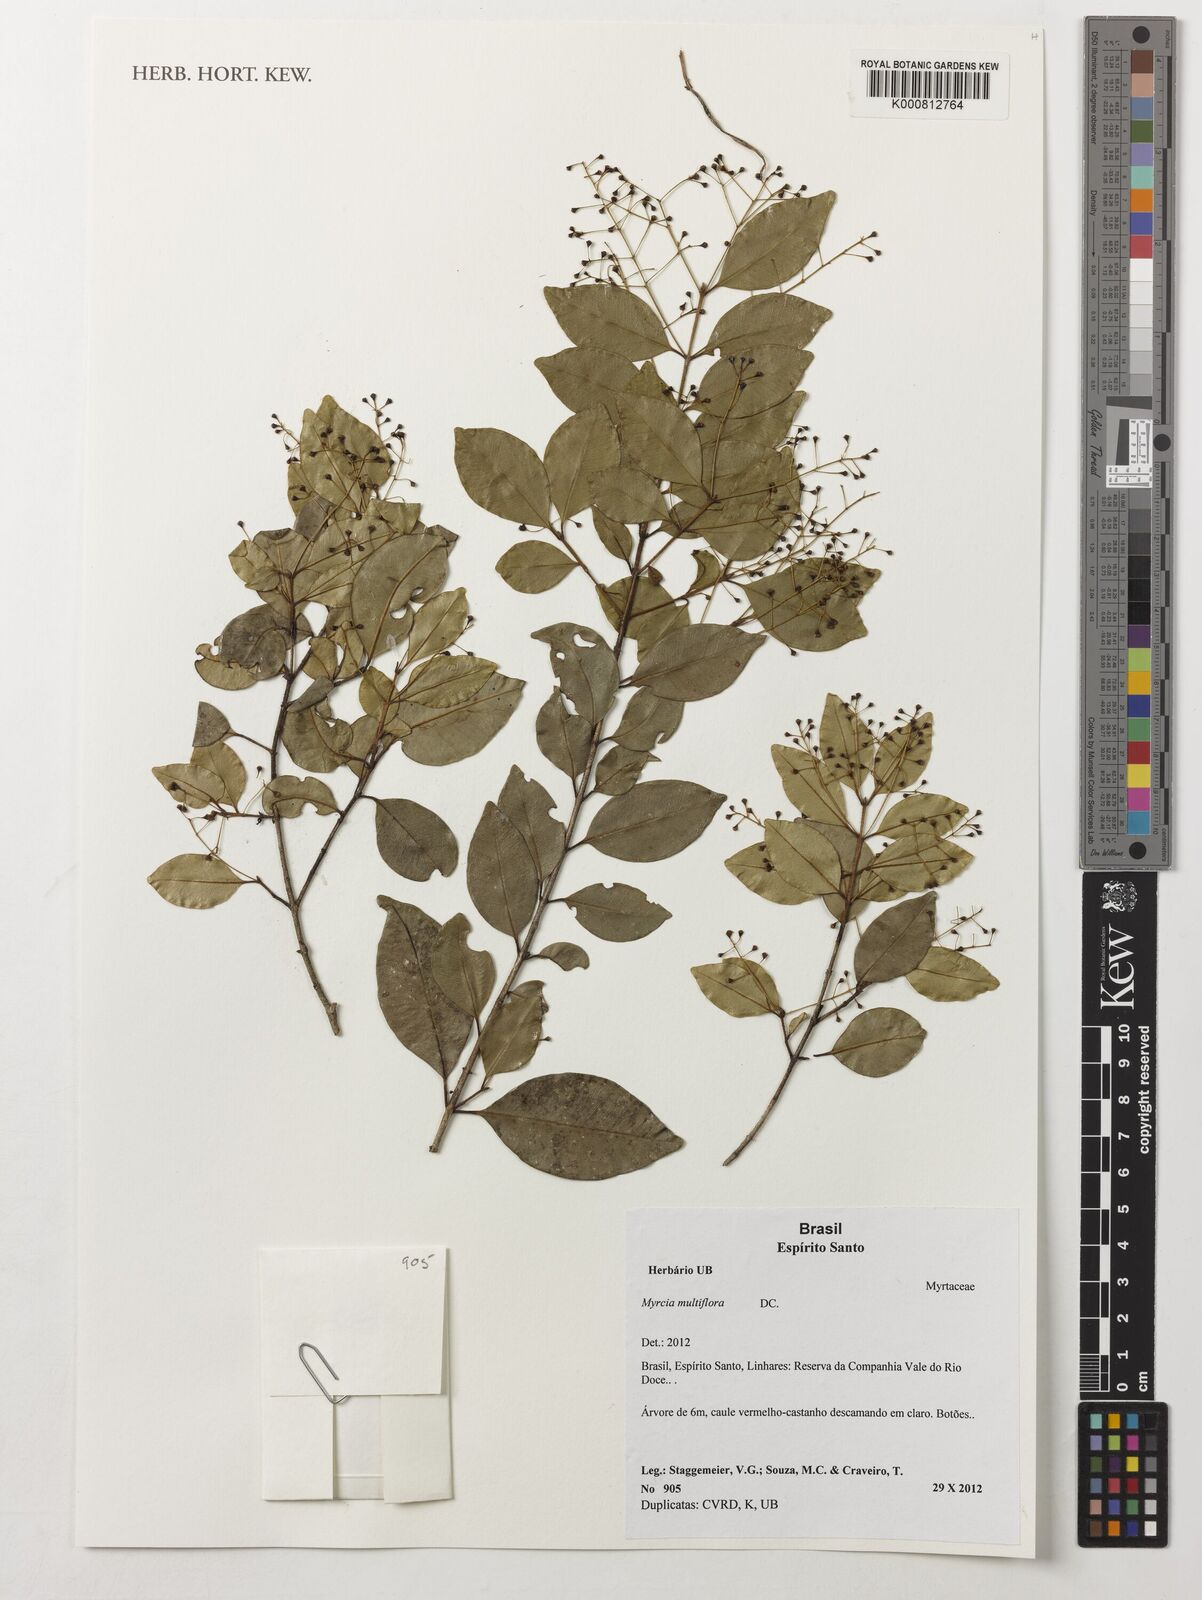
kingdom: Plantae
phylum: Tracheophyta
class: Magnoliopsida
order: Myrtales
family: Myrtaceae
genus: Myrcia
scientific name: Myrcia multiflora
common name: Pedra hume
